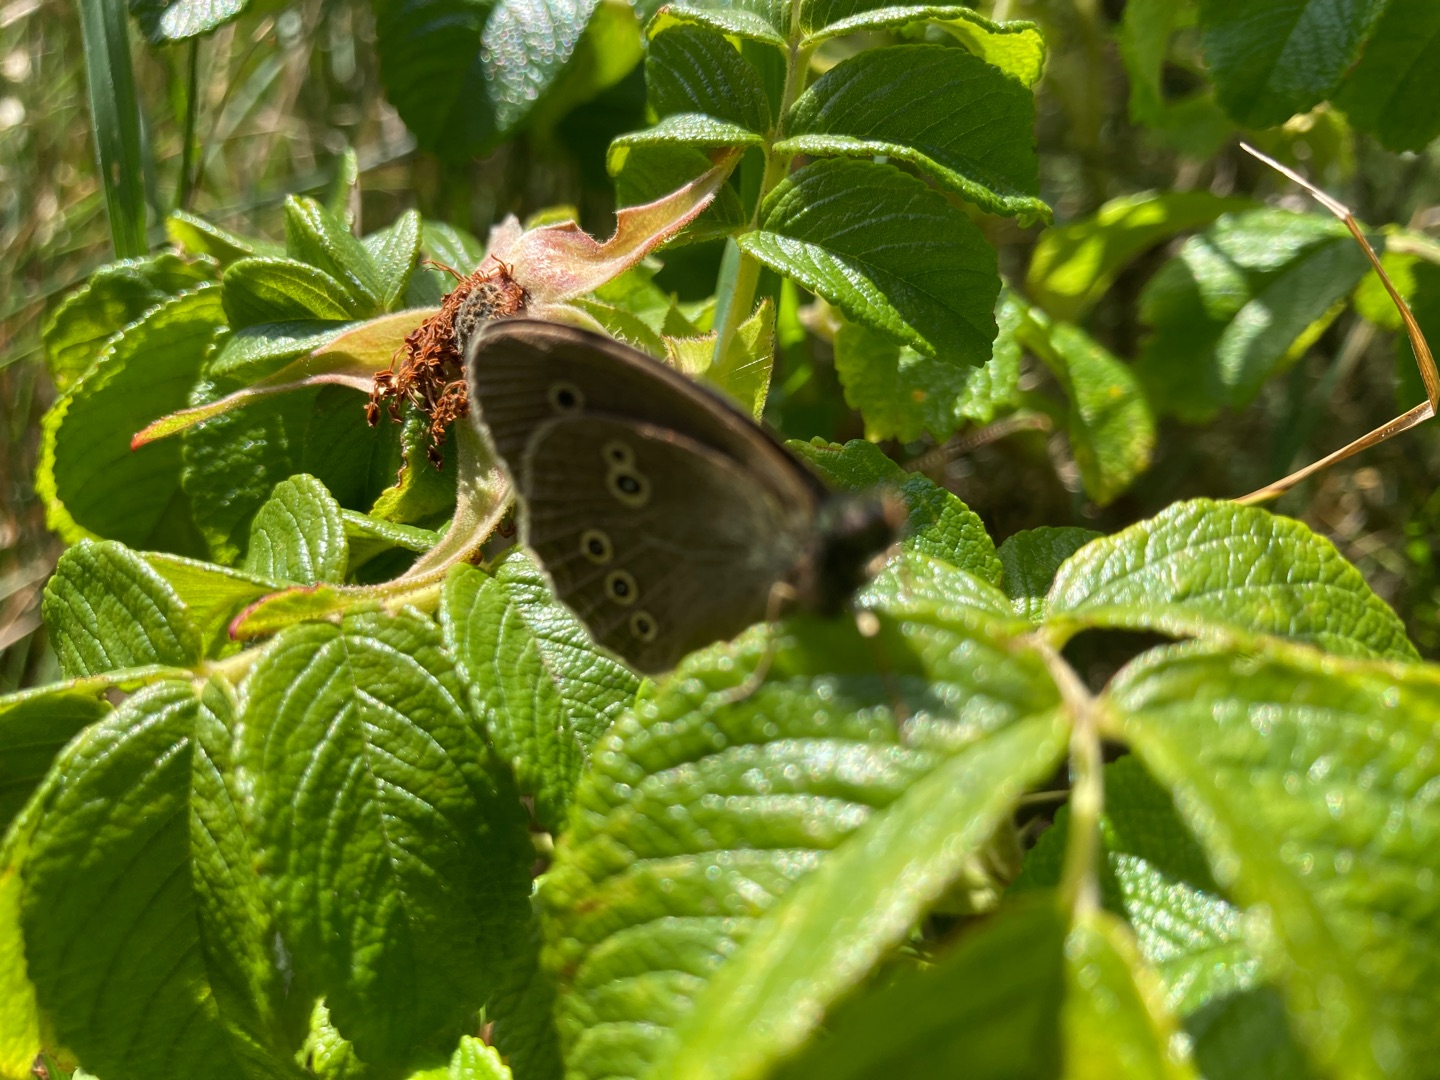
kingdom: Animalia
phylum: Arthropoda
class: Insecta
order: Lepidoptera
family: Nymphalidae
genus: Aphantopus
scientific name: Aphantopus hyperantus
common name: Engrandøje
